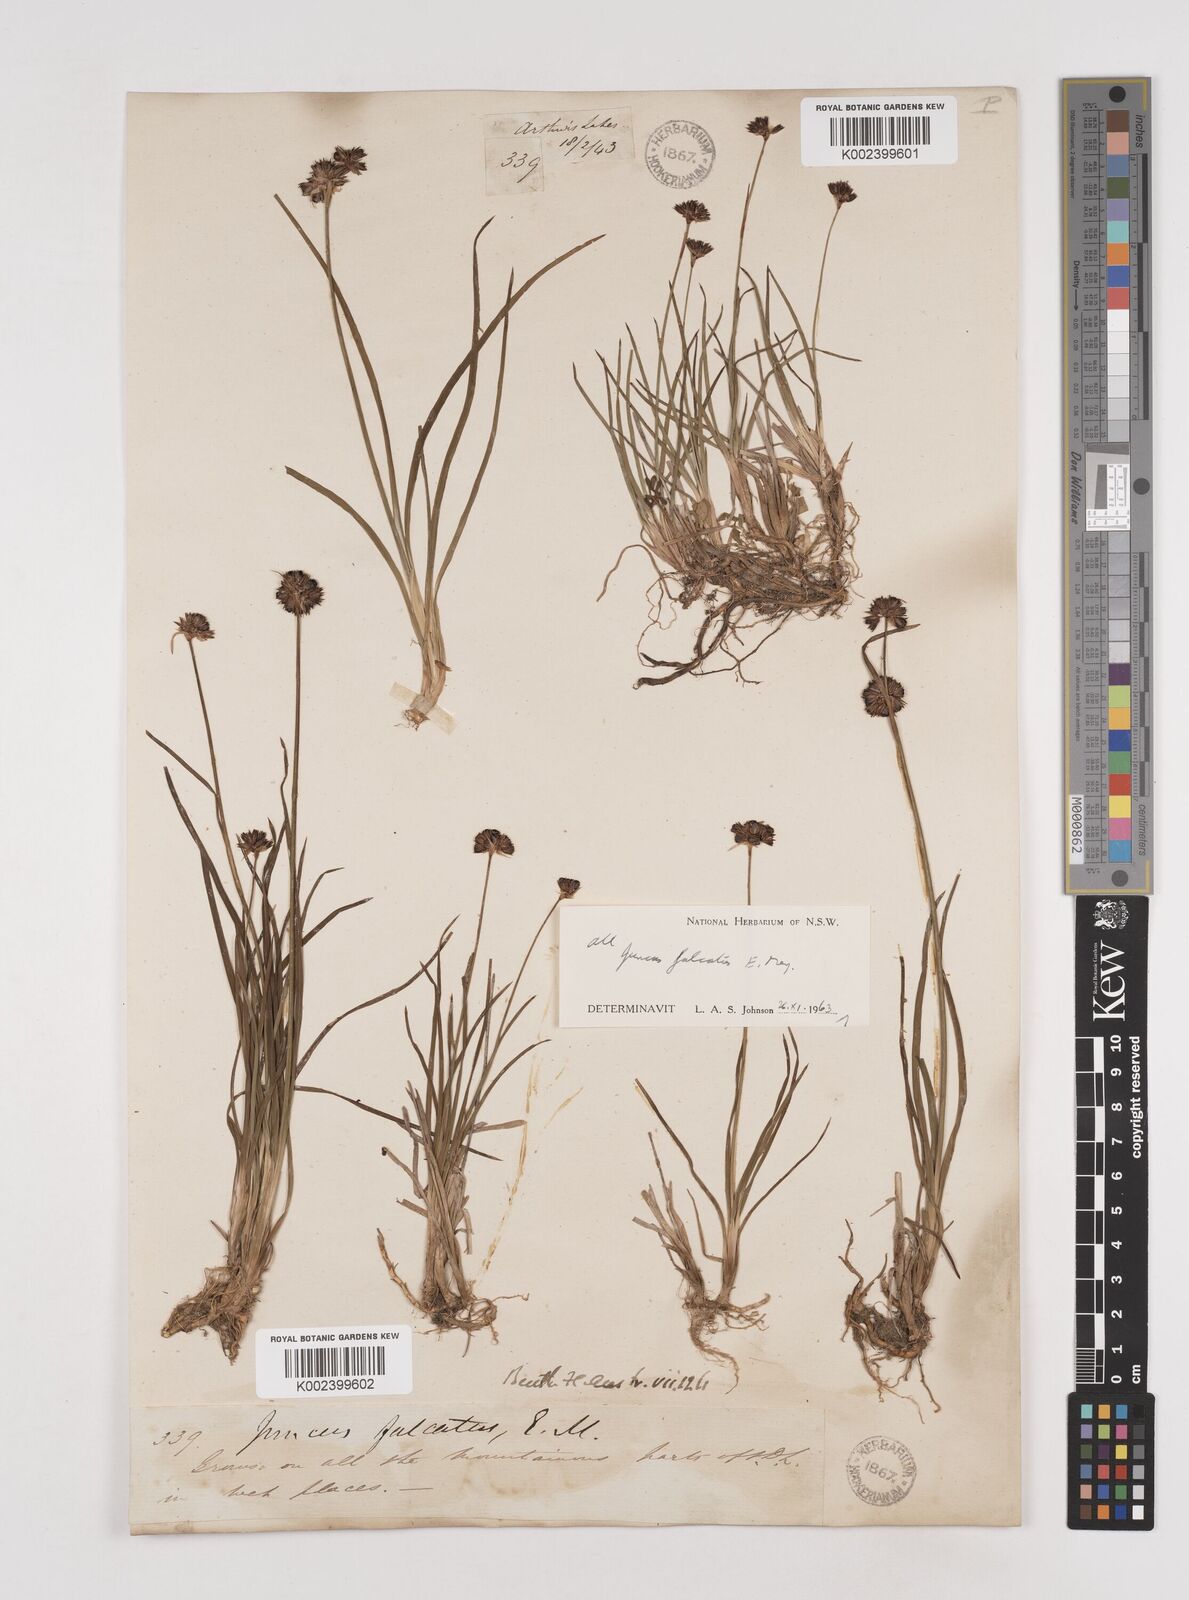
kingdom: Plantae
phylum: Tracheophyta
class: Liliopsida
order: Poales
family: Juncaceae
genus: Juncus
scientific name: Juncus falcatus
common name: Sickle-leaf rush
